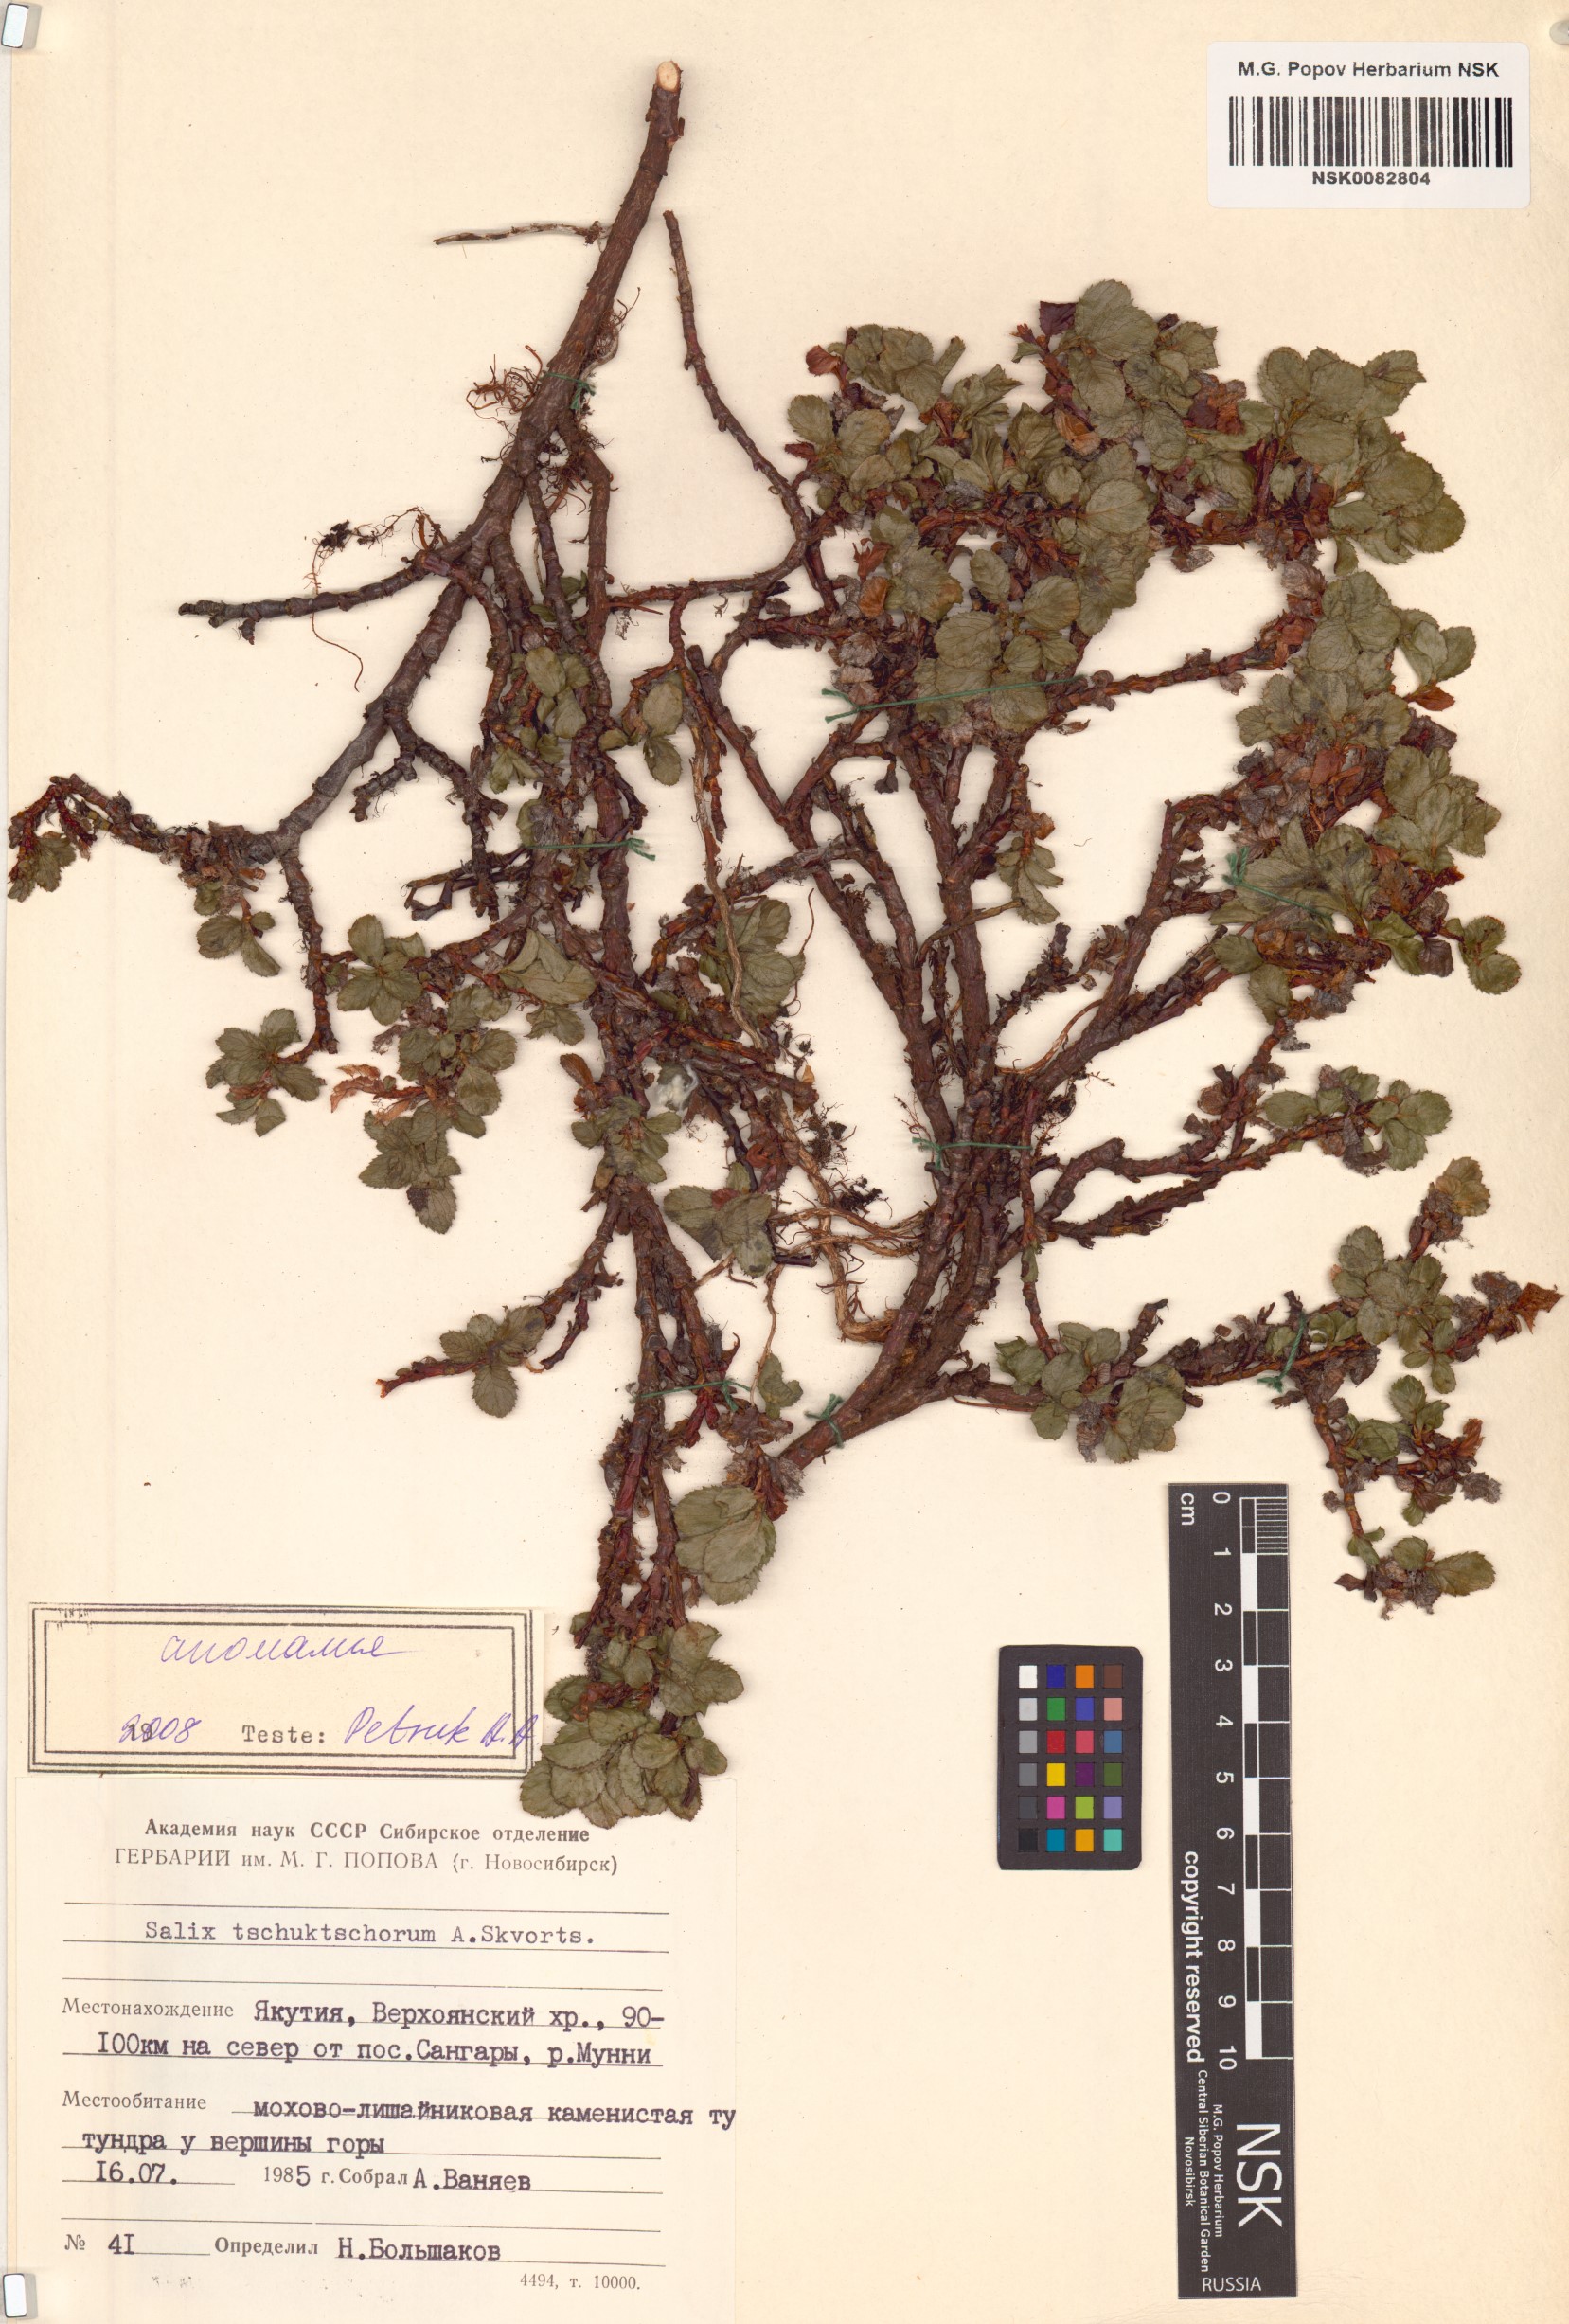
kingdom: Plantae
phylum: Tracheophyta
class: Magnoliopsida
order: Malpighiales
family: Salicaceae
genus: Salix
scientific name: Salix tschuktschorum
